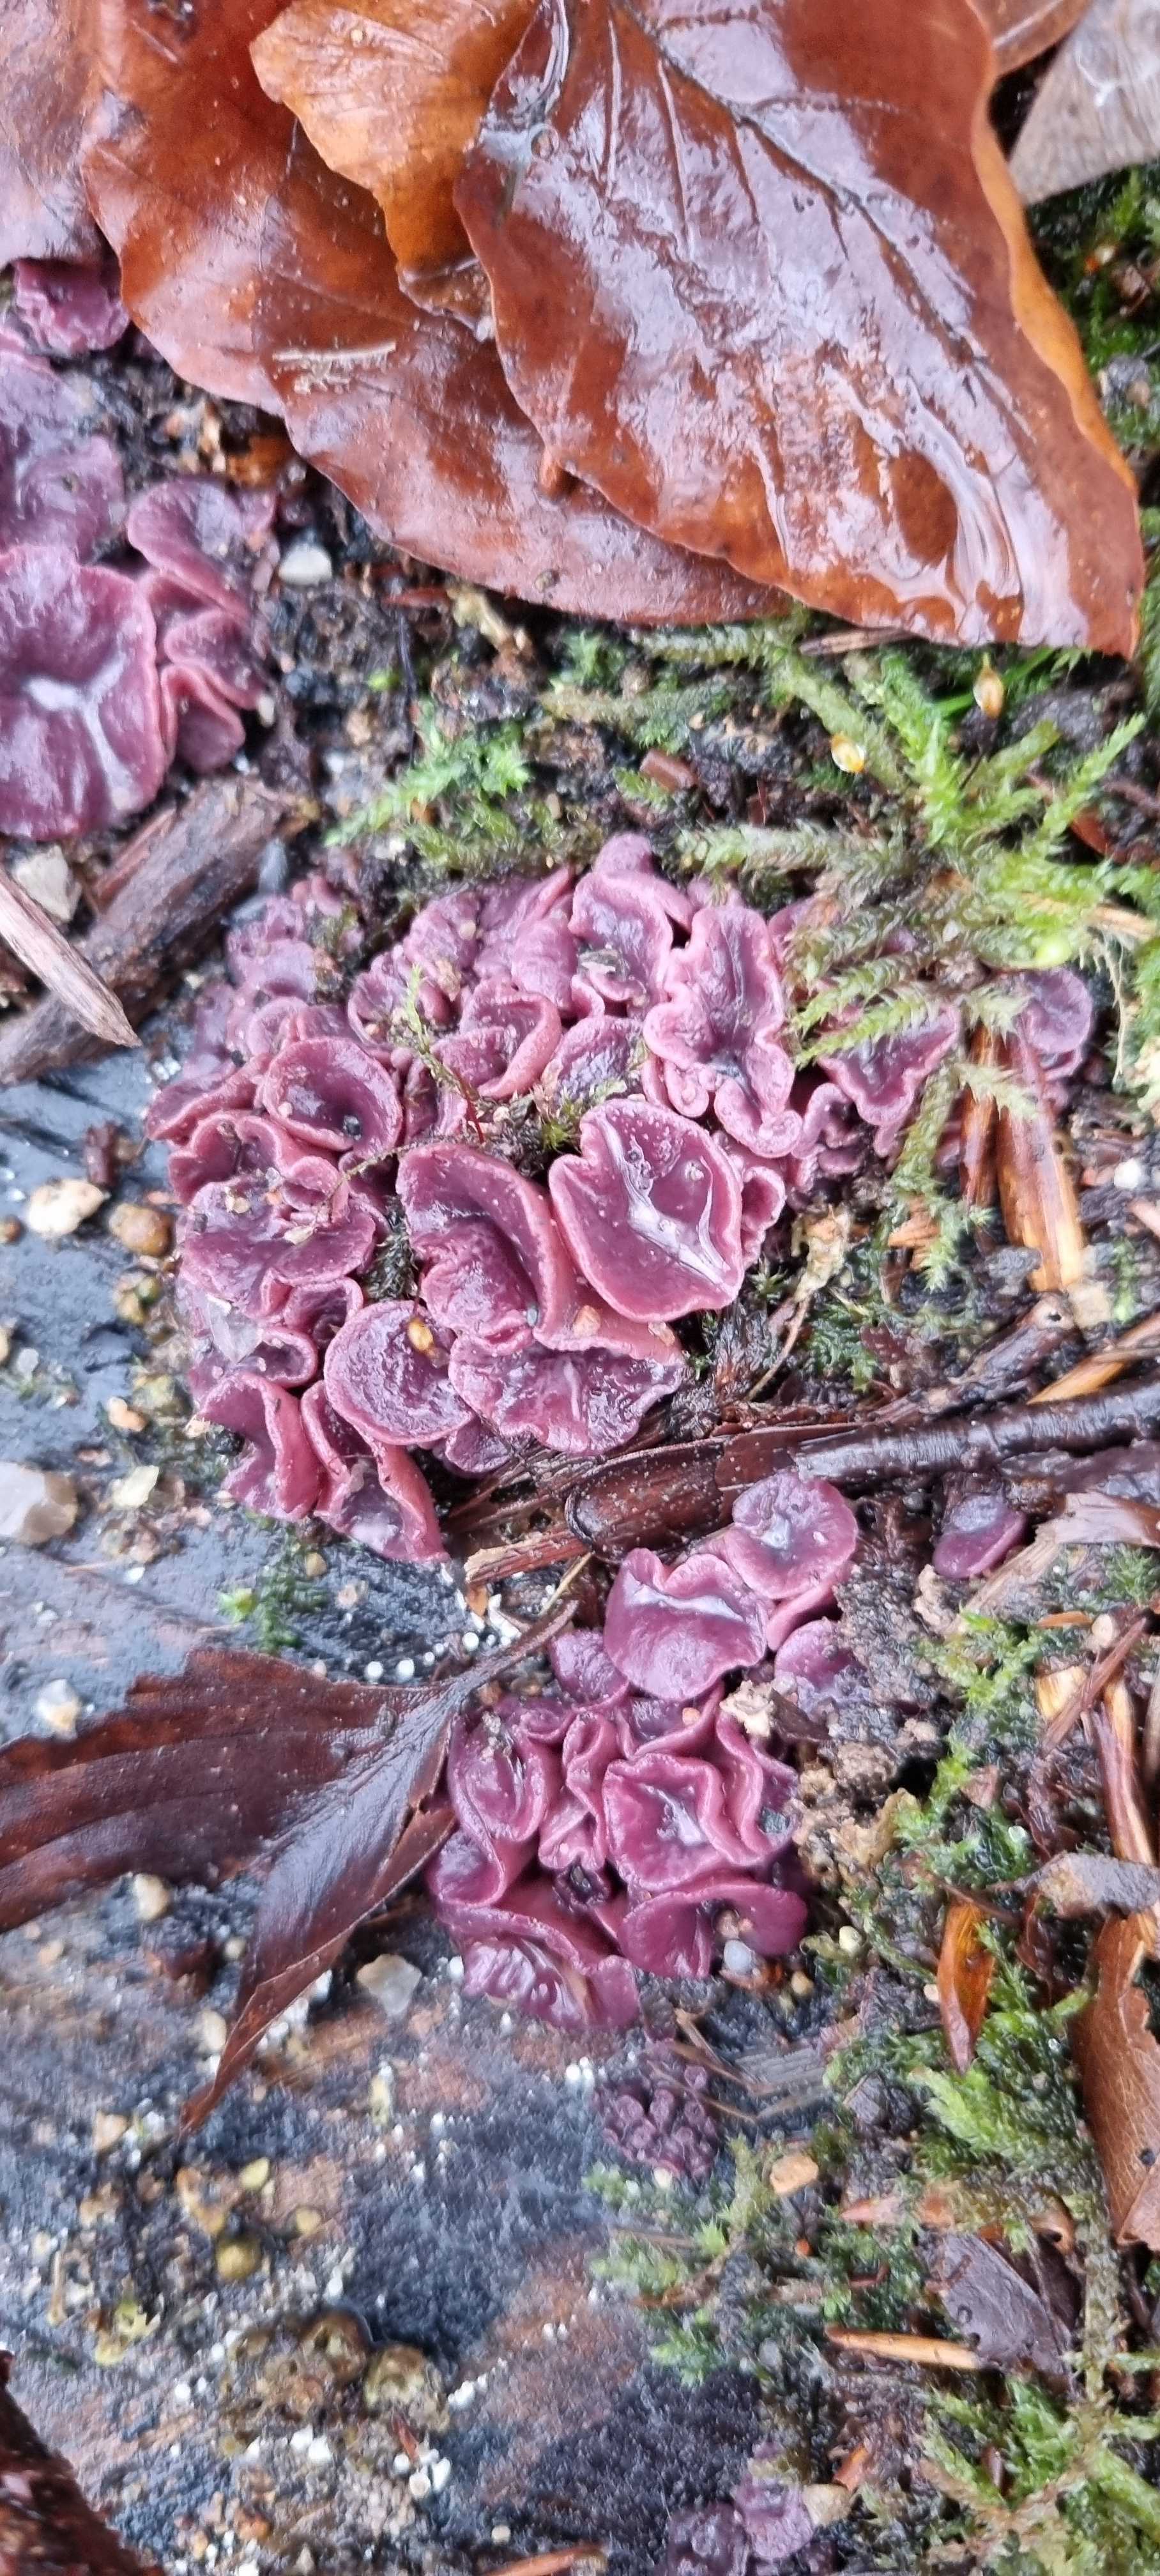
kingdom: Fungi
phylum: Ascomycota
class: Leotiomycetes
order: Helotiales
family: Gelatinodiscaceae
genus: Ascocoryne
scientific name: Ascocoryne cylichnium
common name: stor sejskive
